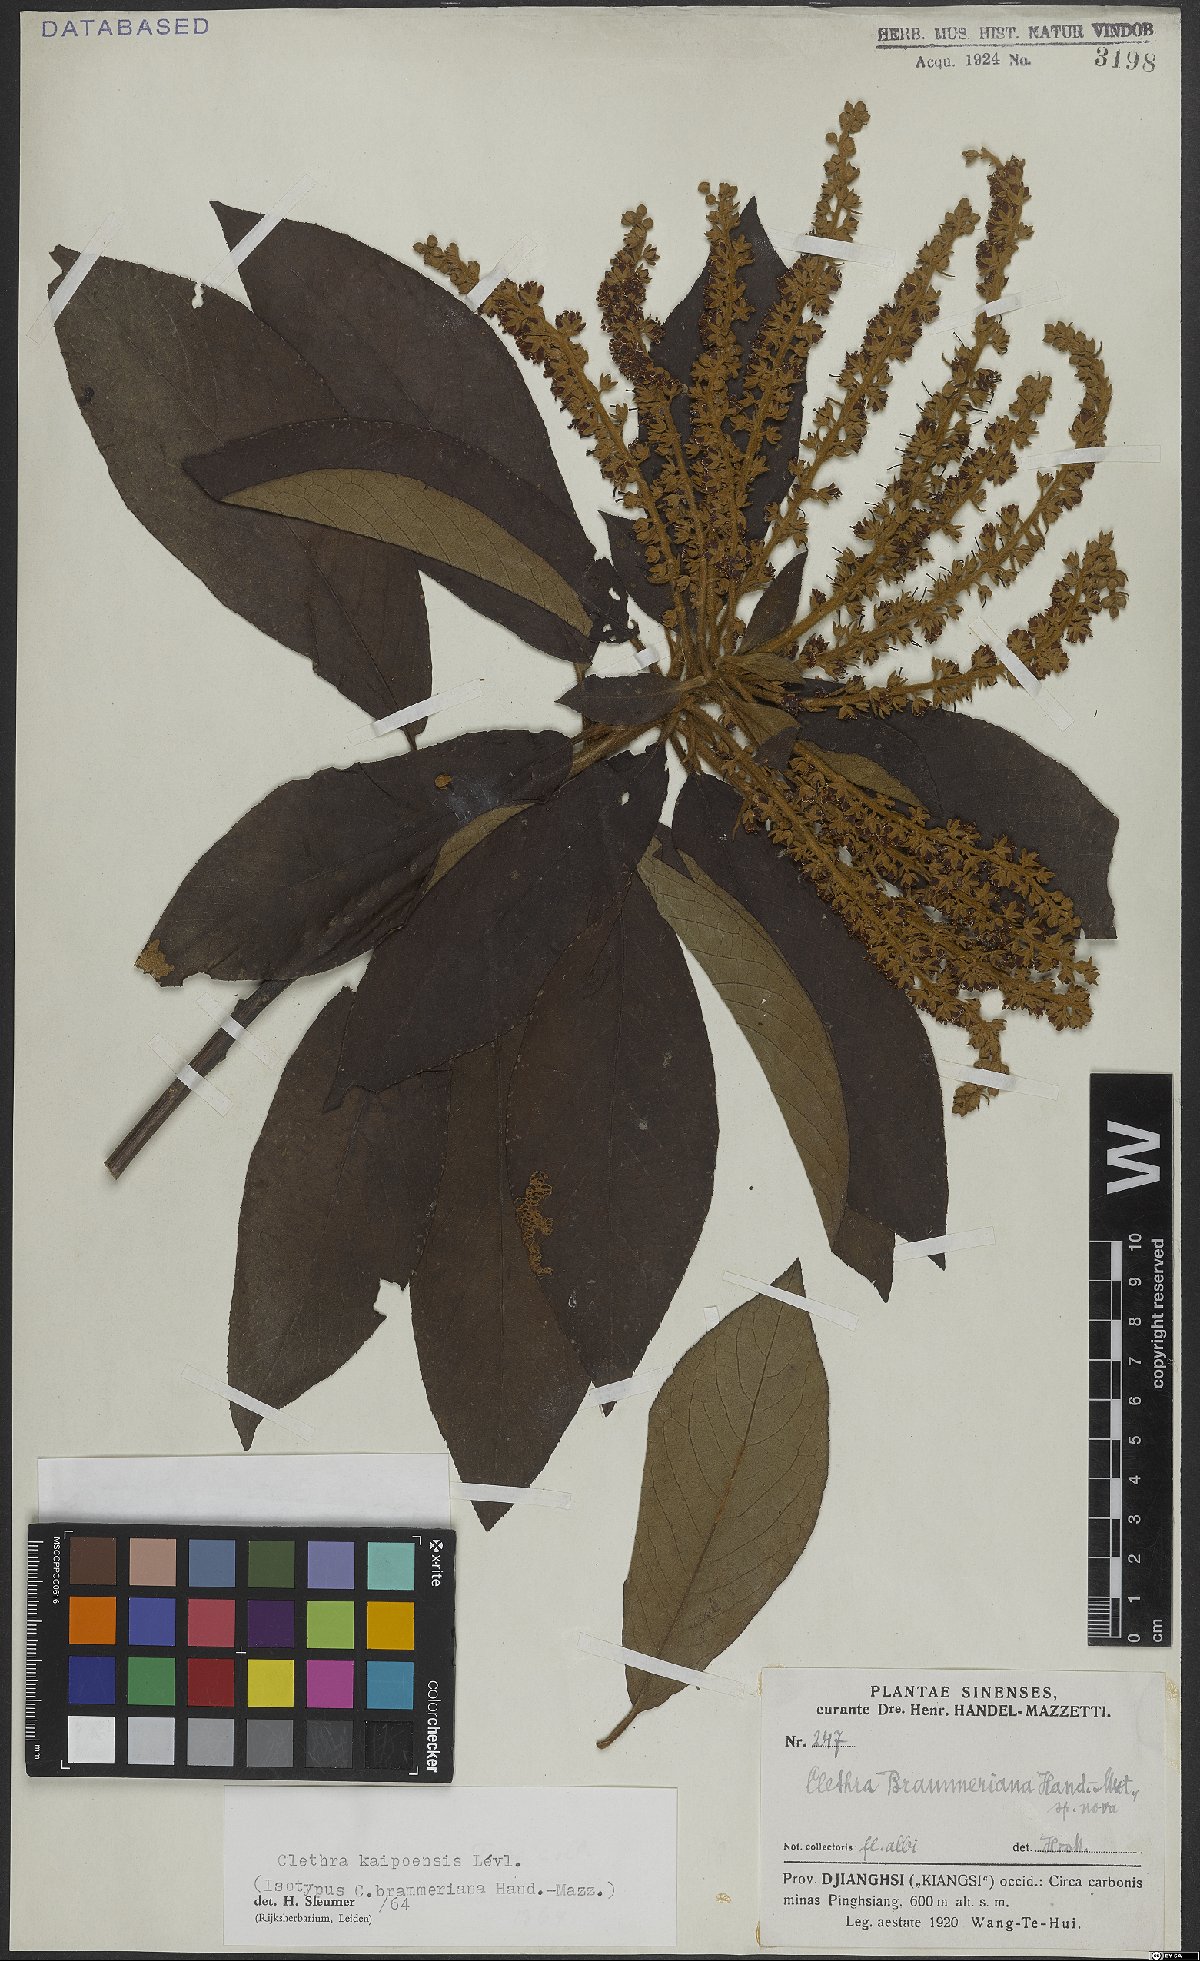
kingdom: Plantae
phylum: Tracheophyta
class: Magnoliopsida
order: Ericales
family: Clethraceae
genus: Clethra
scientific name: Clethra kaipoensis
